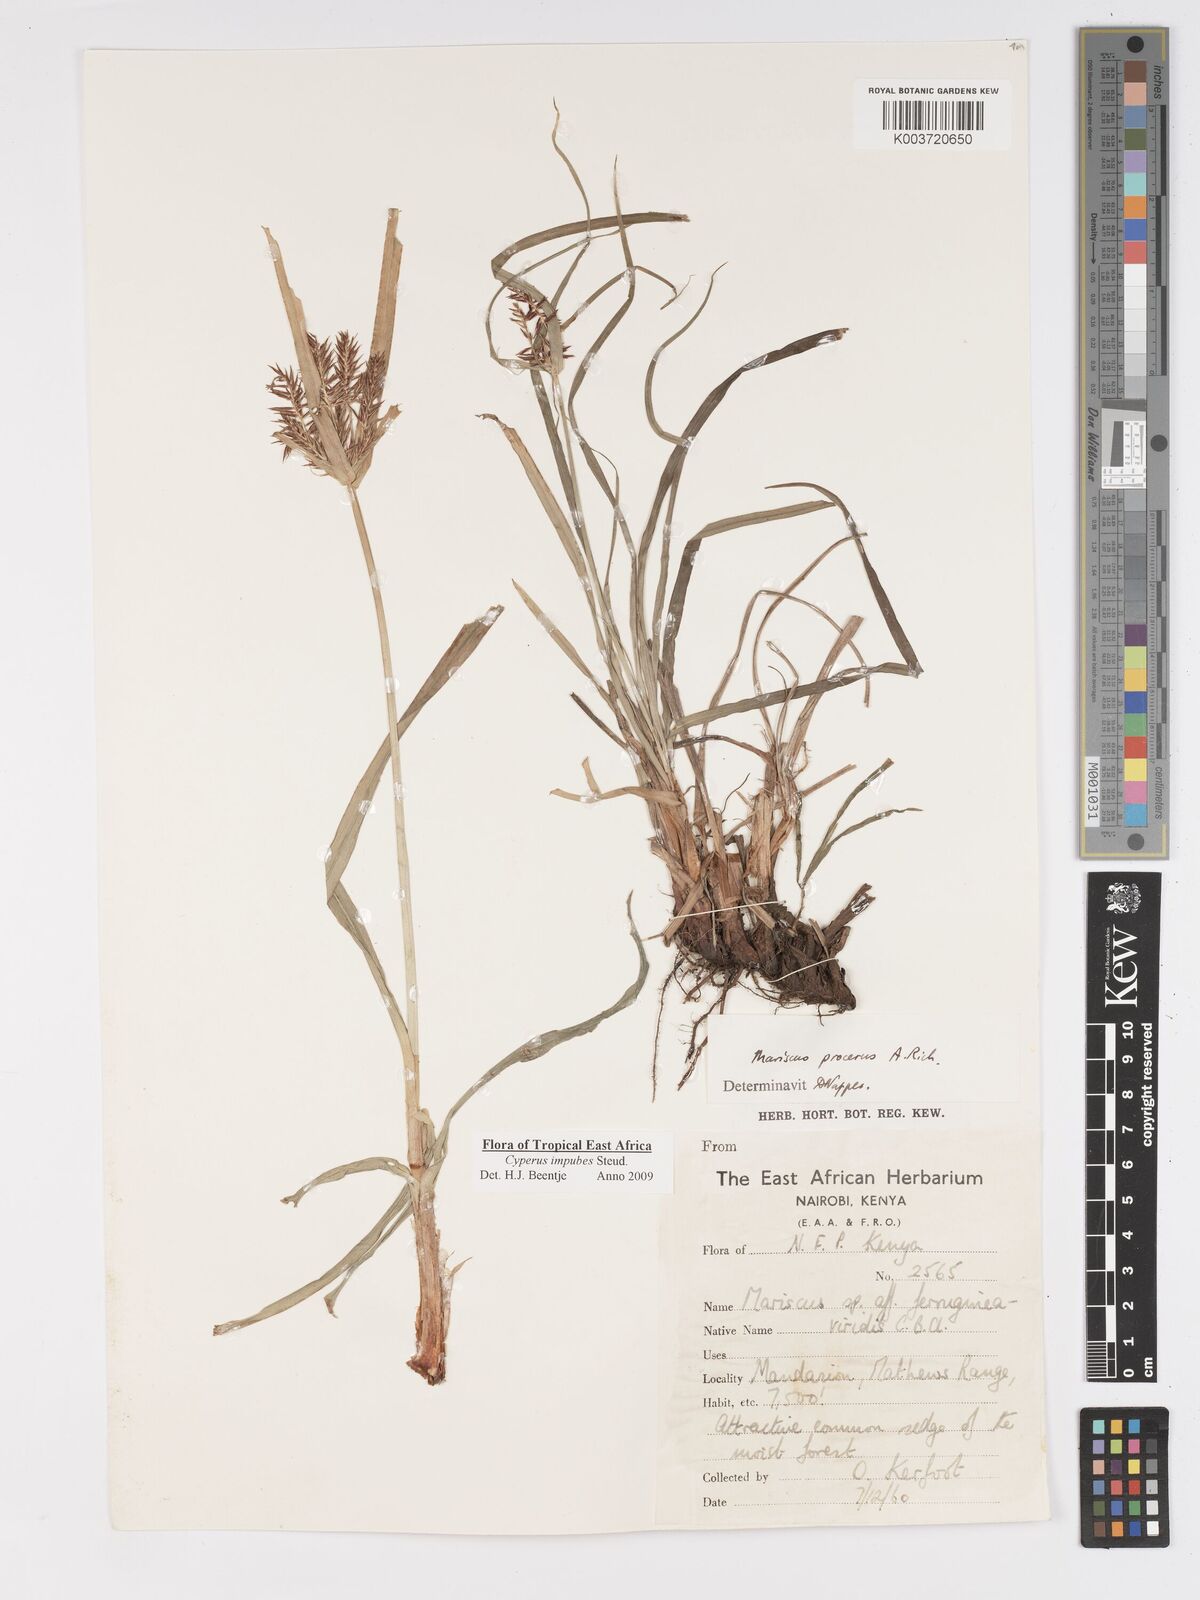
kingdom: Plantae
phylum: Tracheophyta
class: Liliopsida
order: Poales
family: Cyperaceae
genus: Cyperus
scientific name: Cyperus impubes
